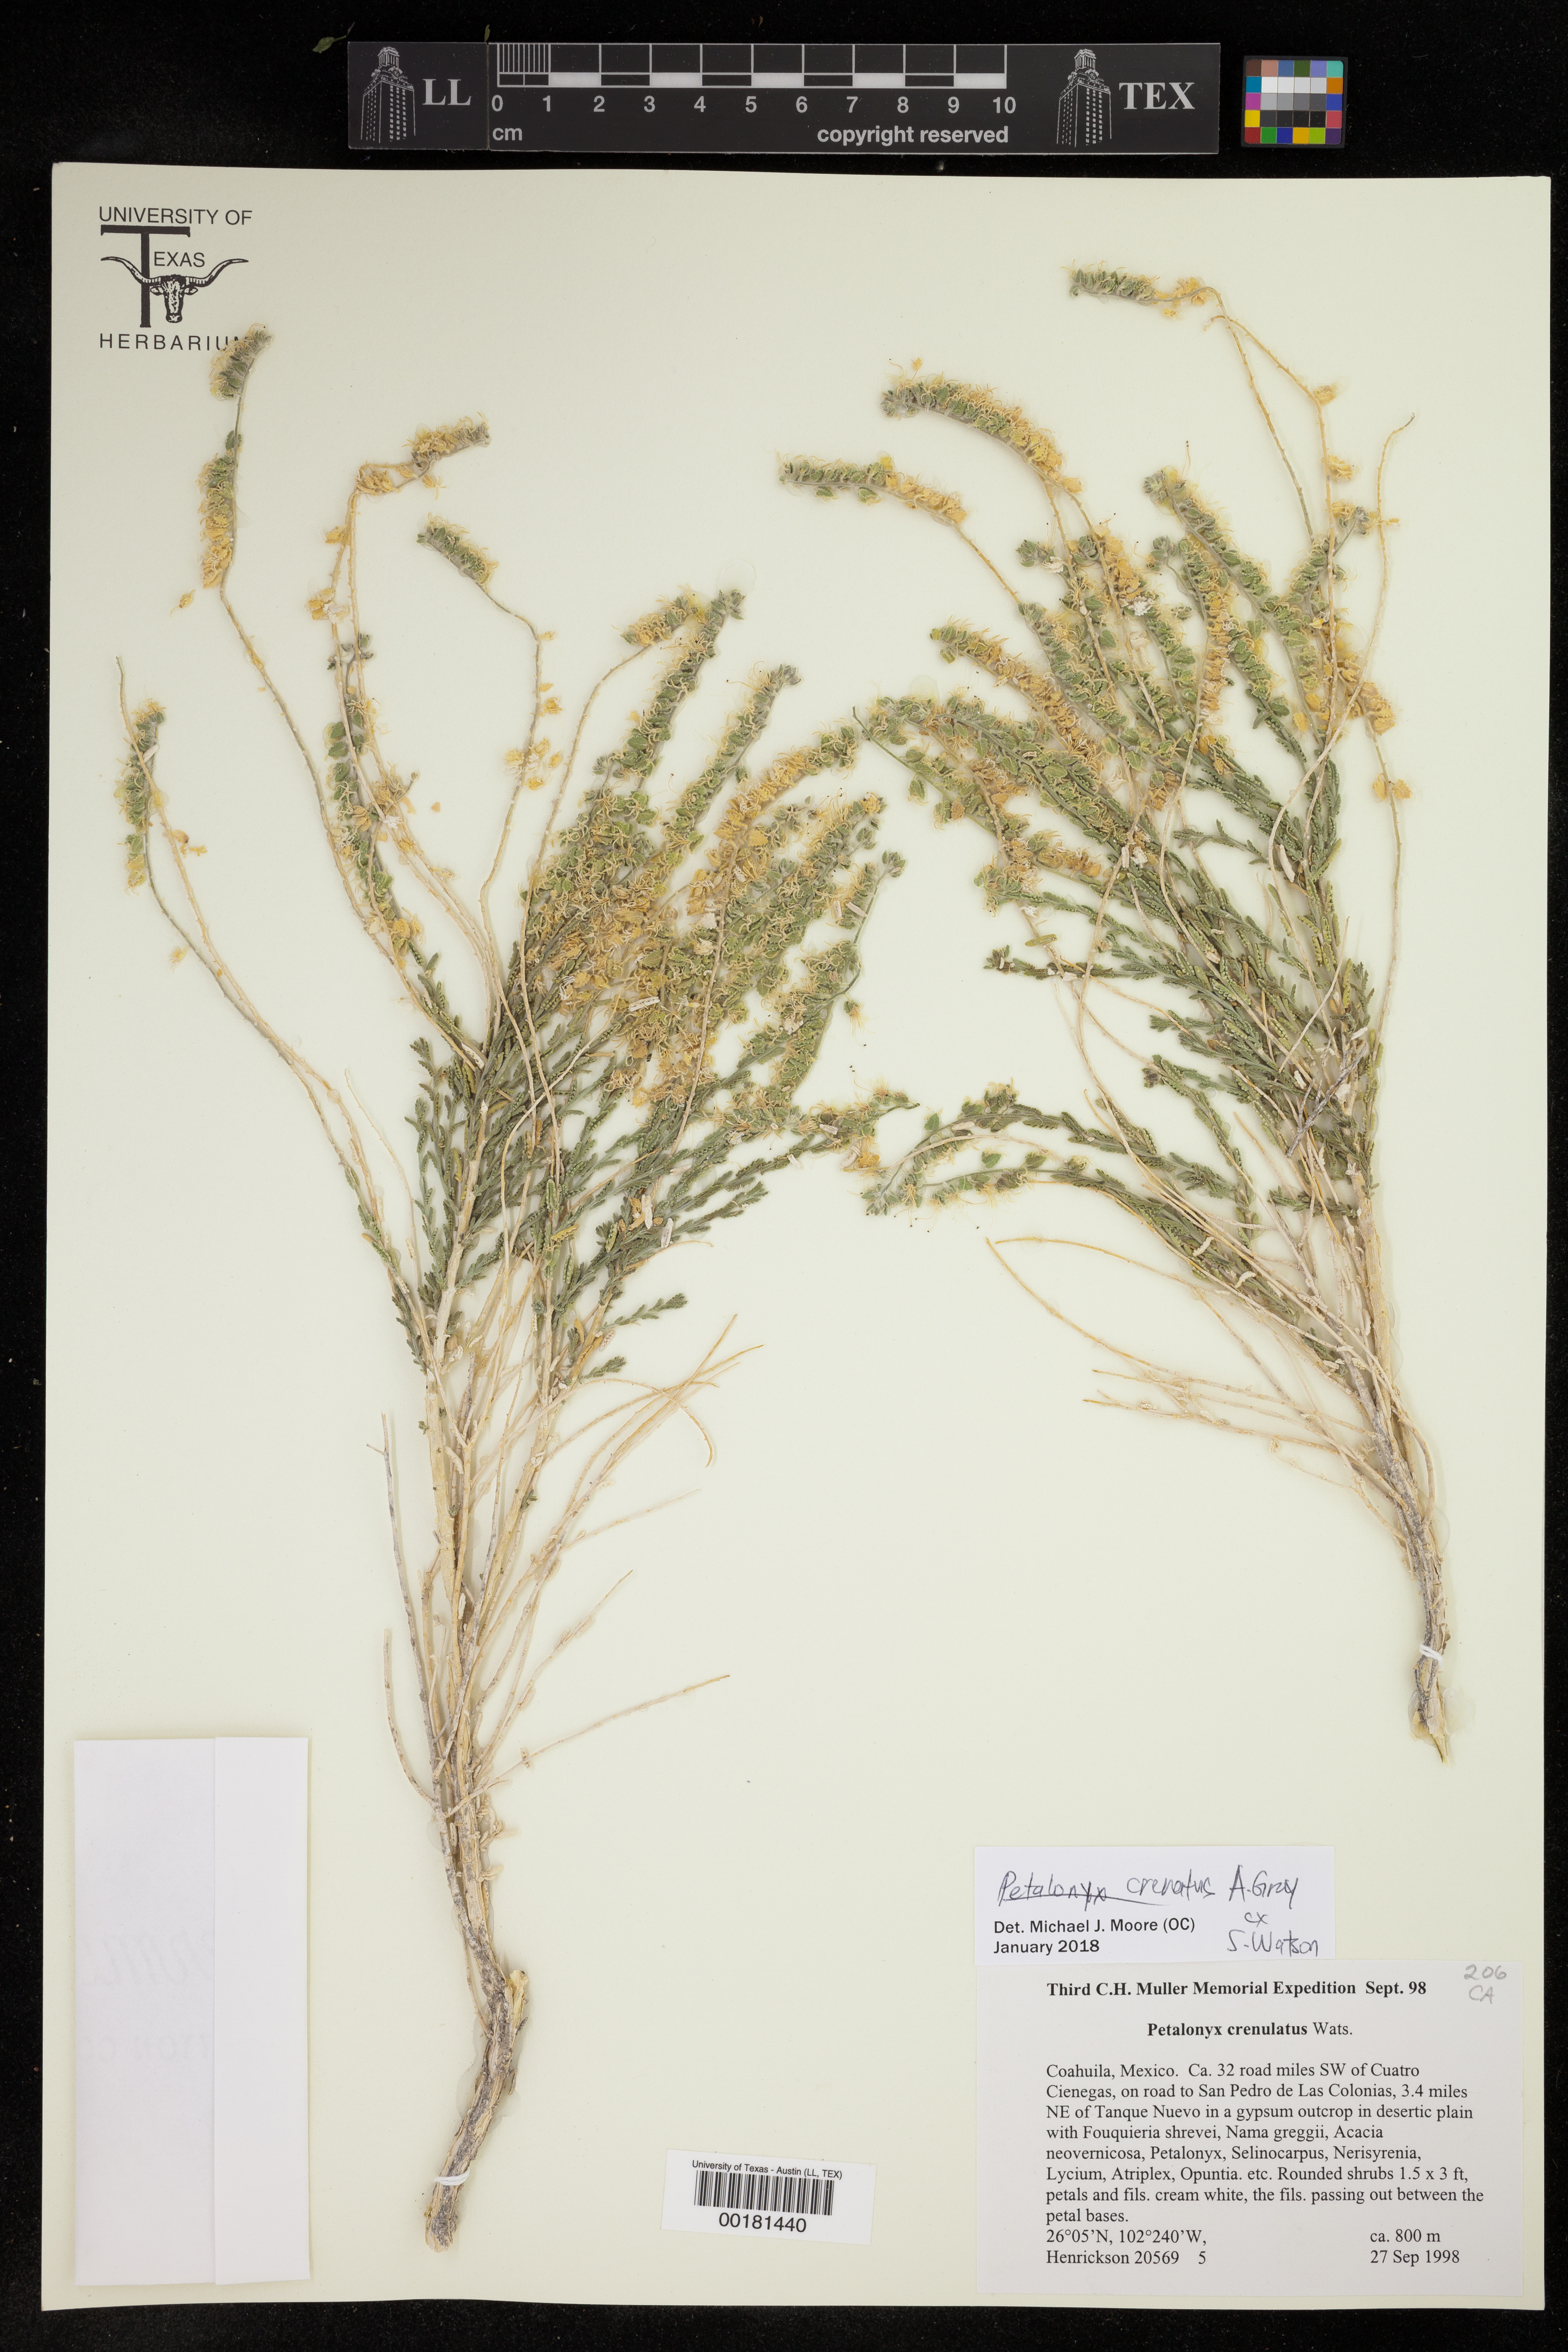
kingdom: Plantae
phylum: Tracheophyta
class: Magnoliopsida
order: Cornales
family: Loasaceae
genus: Petalonyx
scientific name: Petalonyx crenatus
